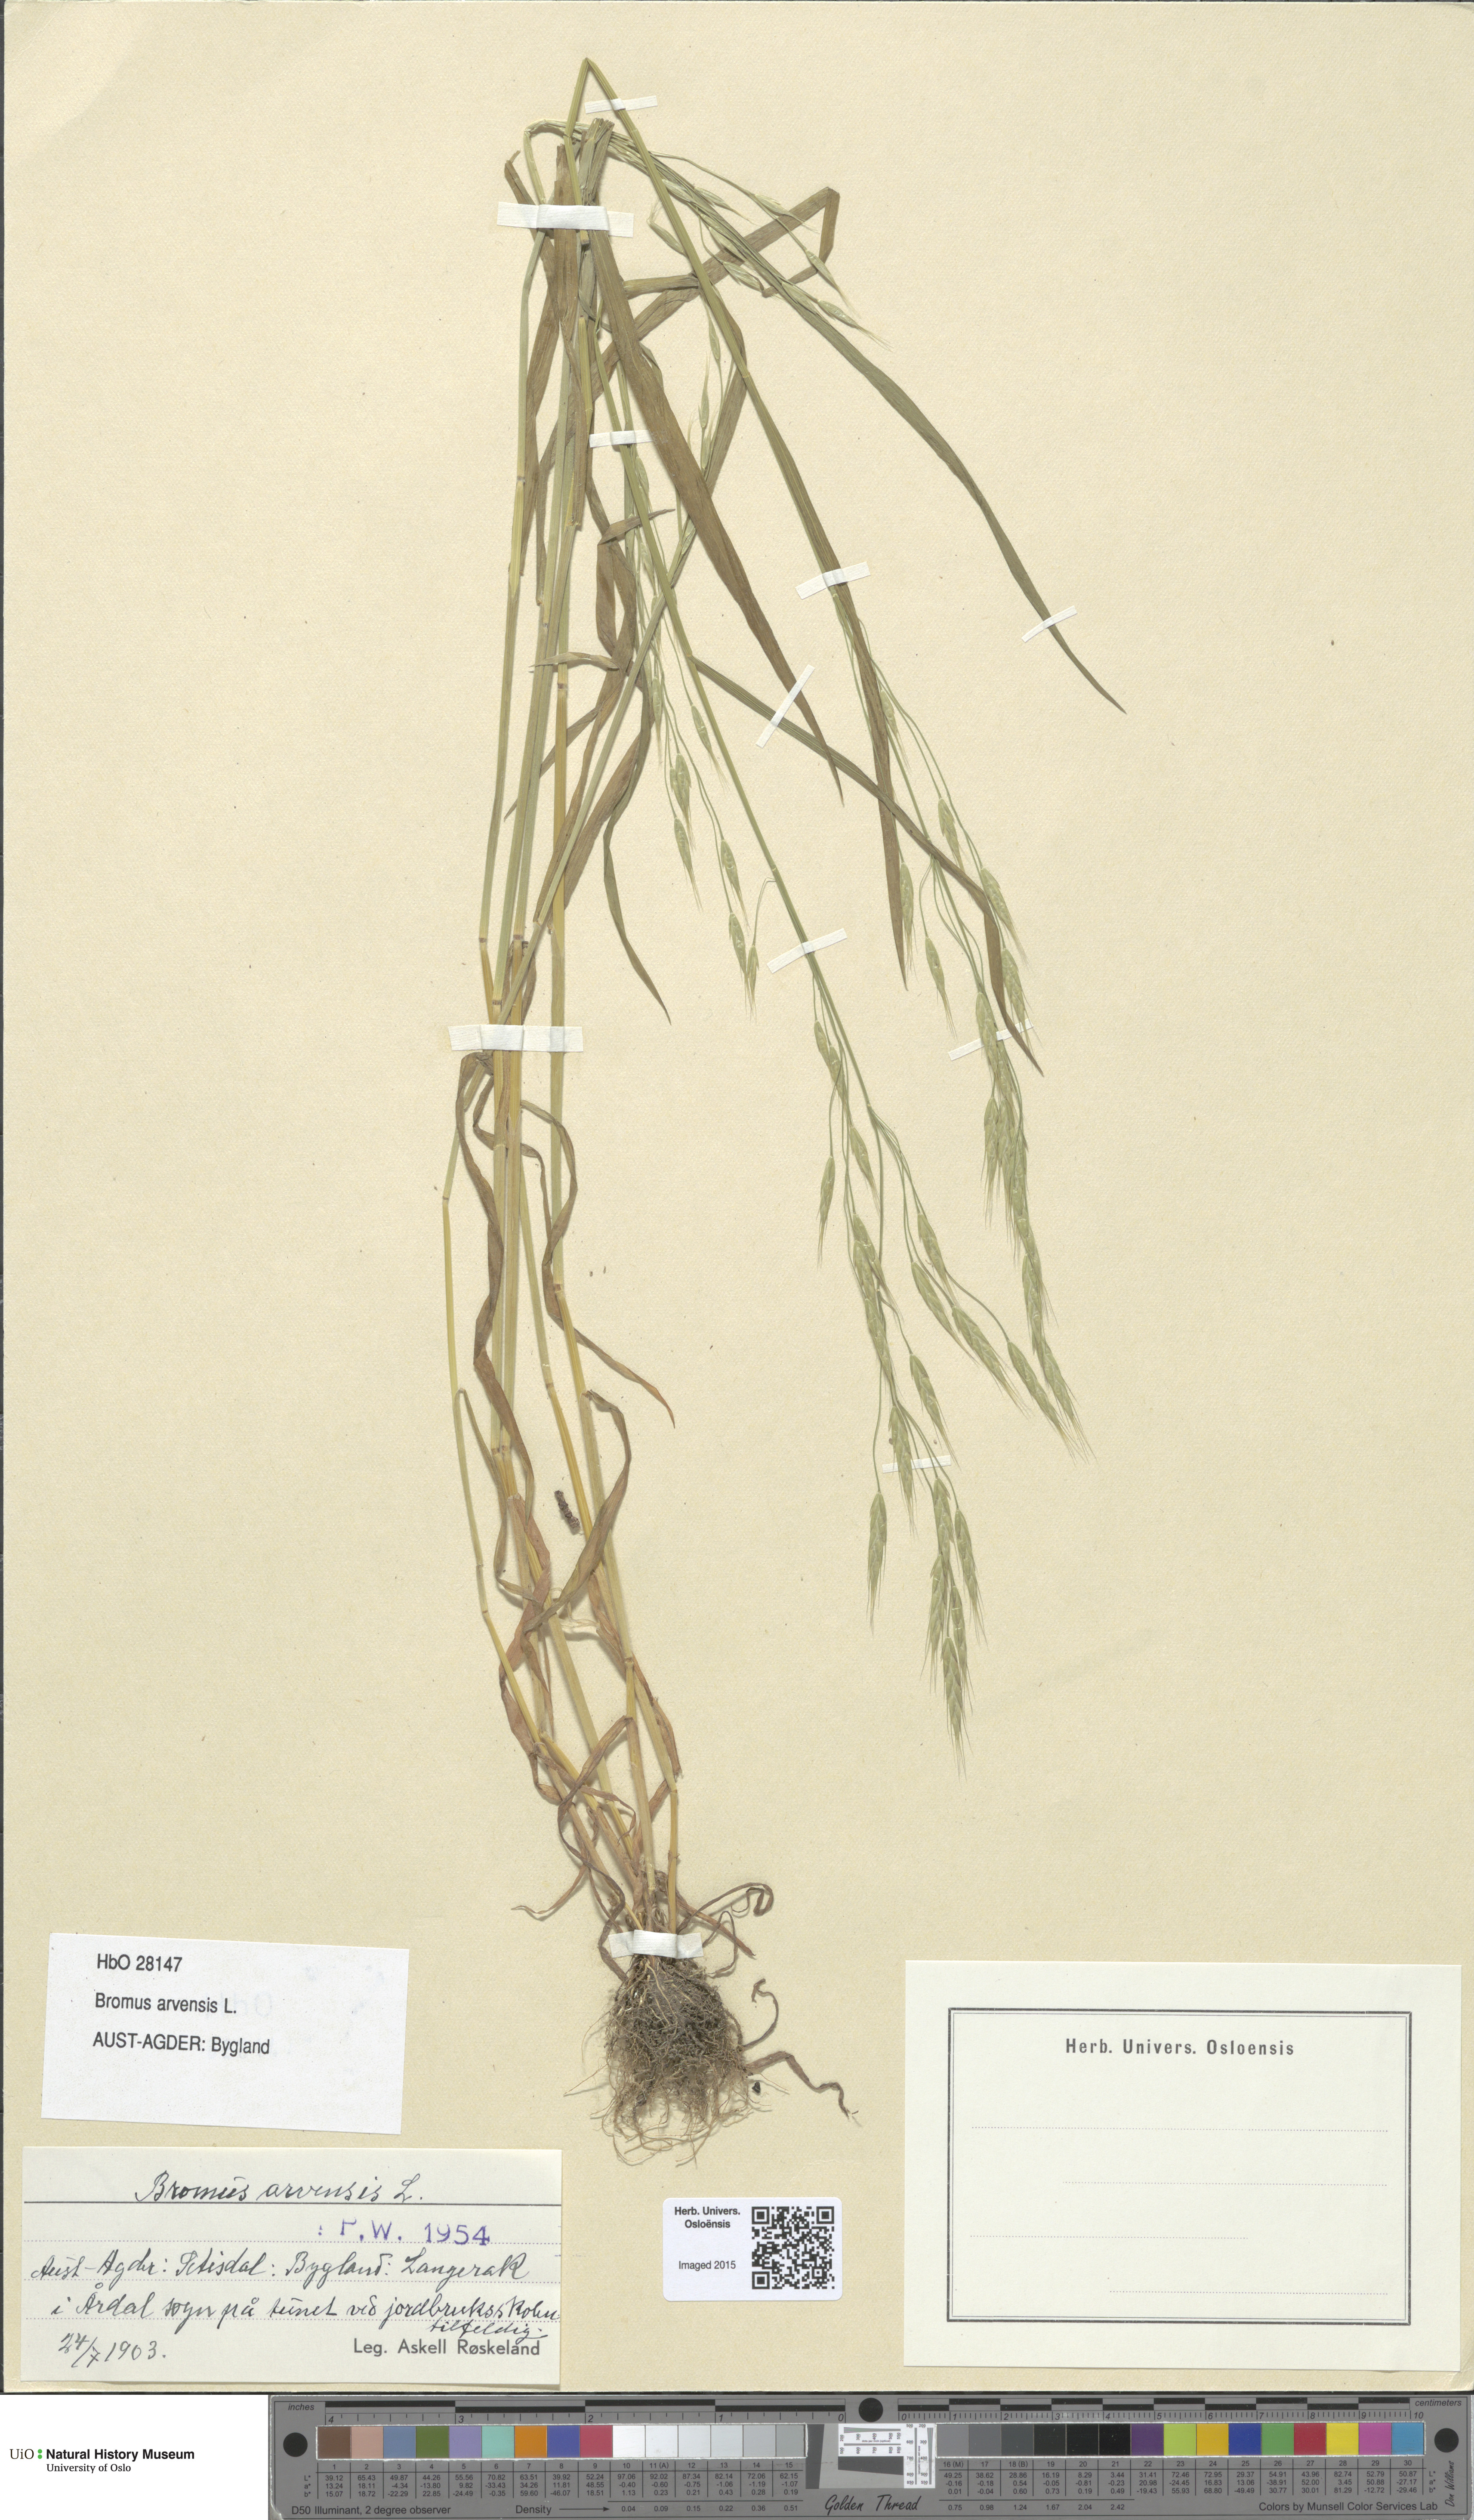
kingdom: Plantae
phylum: Tracheophyta
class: Liliopsida
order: Poales
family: Poaceae
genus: Bromus
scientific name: Bromus arvensis
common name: Field brome
